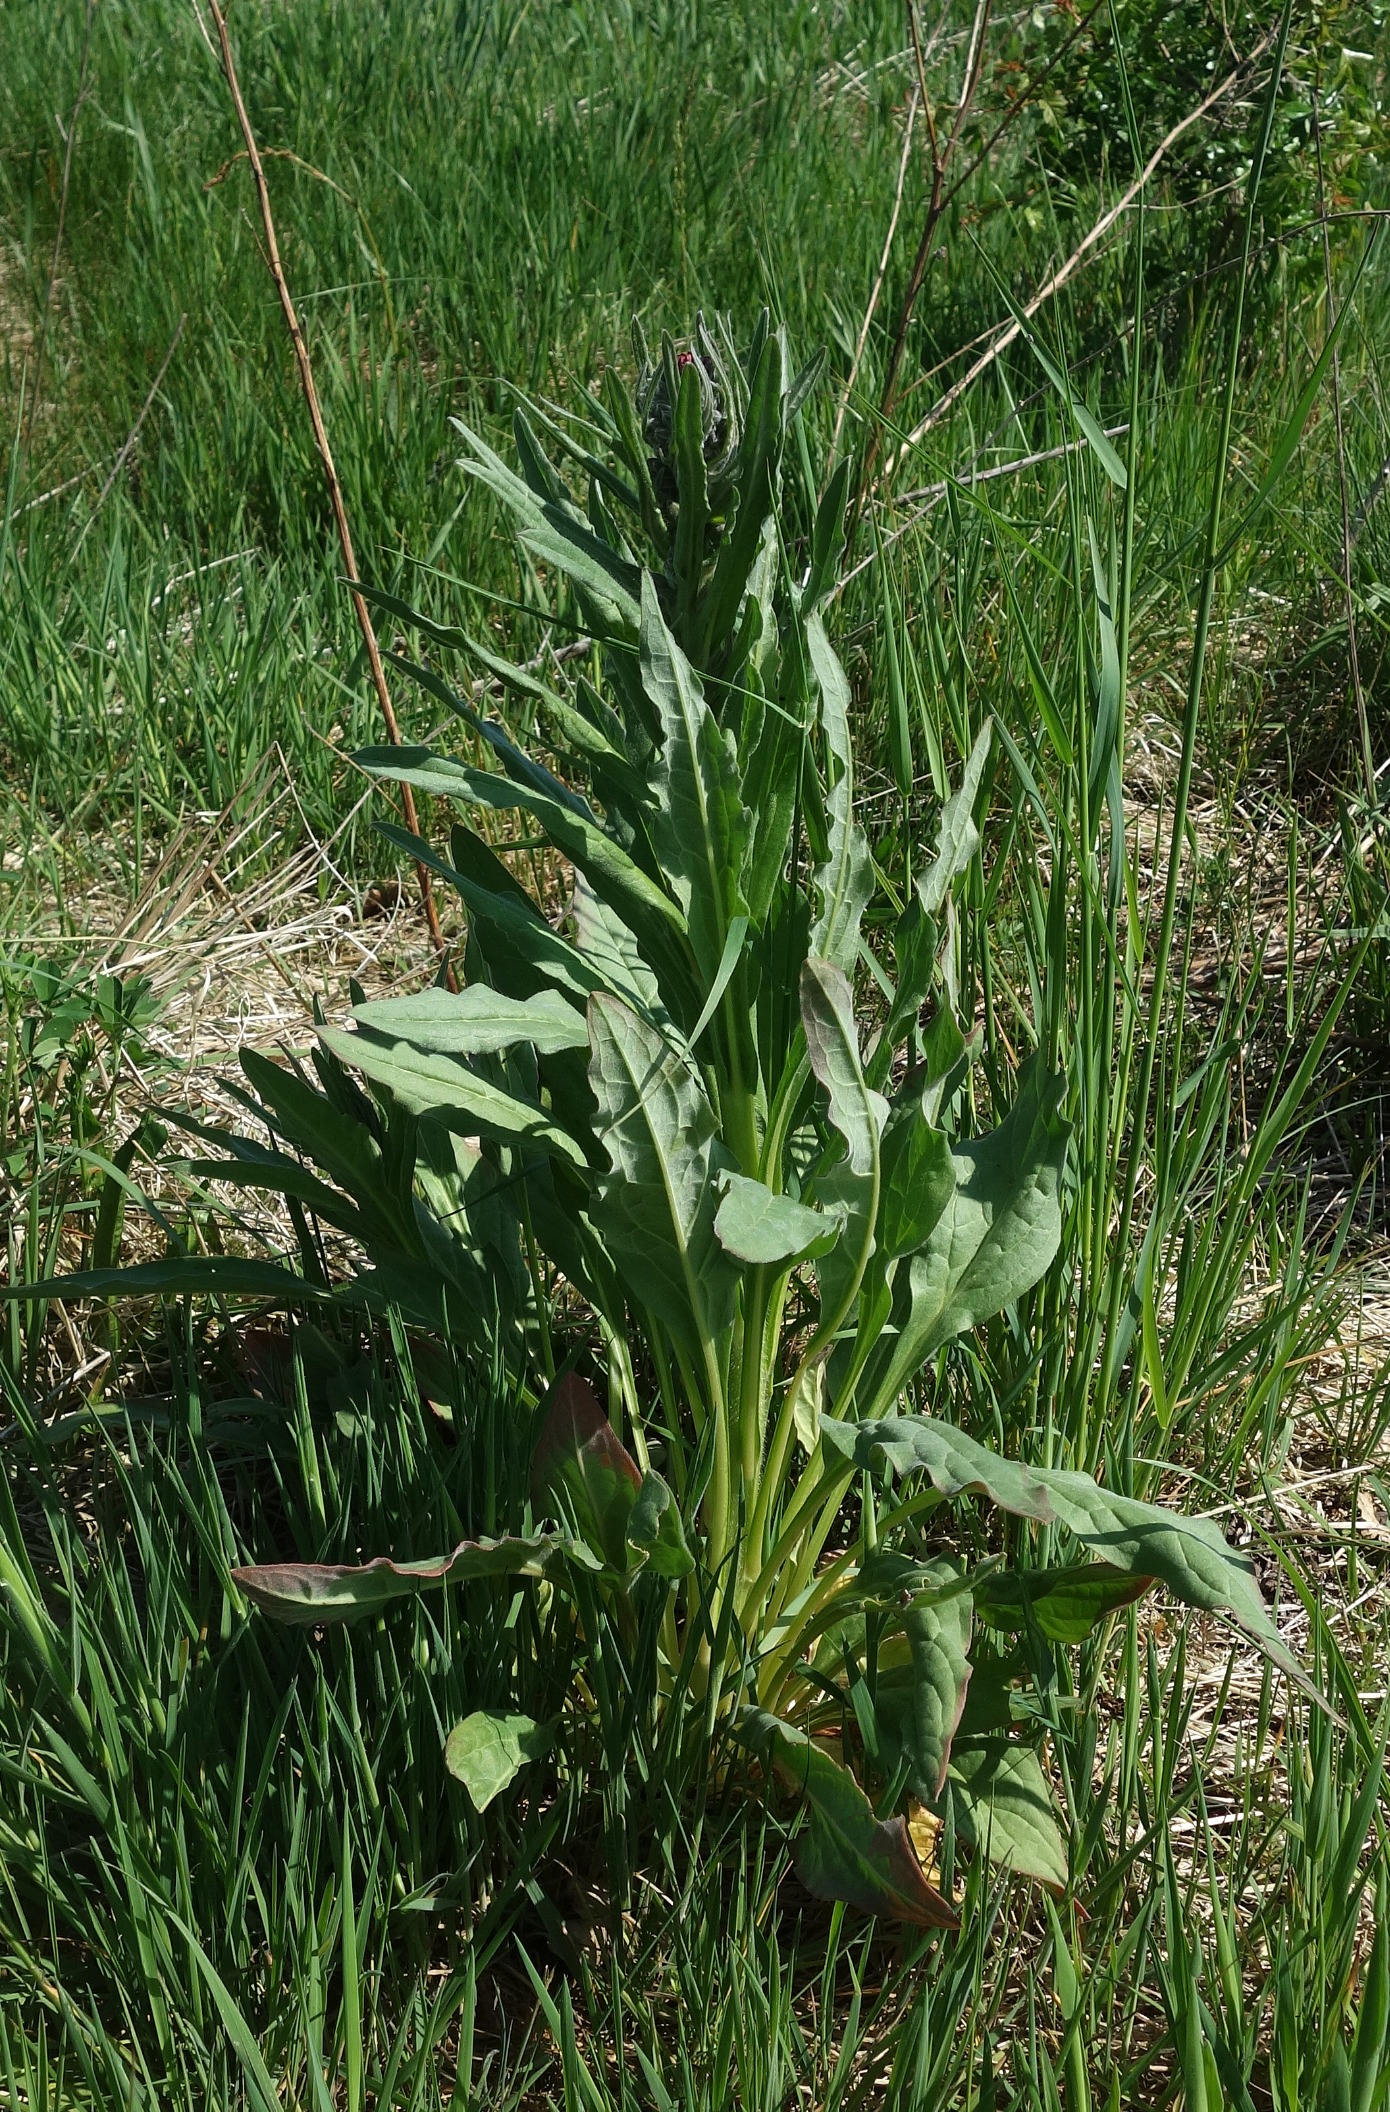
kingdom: Plantae
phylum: Tracheophyta
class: Magnoliopsida
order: Boraginales
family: Boraginaceae
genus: Cynoglossum
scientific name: Cynoglossum officinale
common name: Hundetunge
